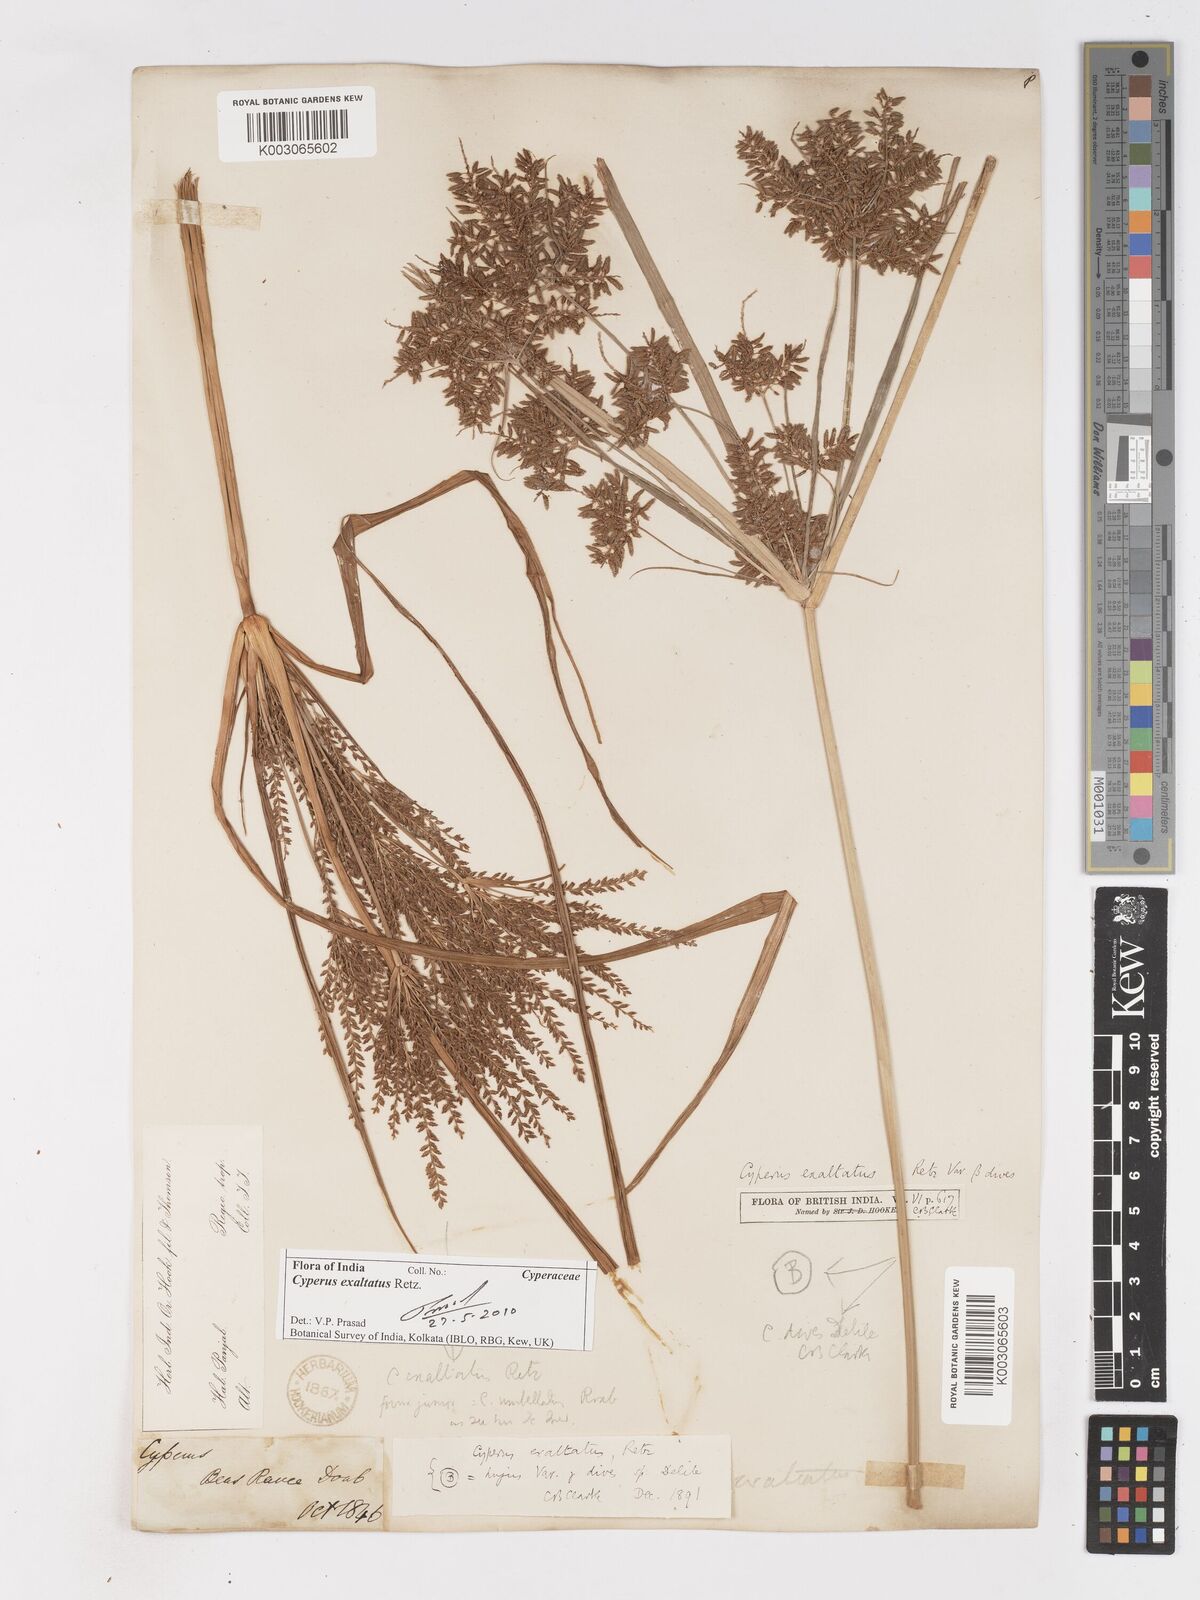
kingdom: Plantae
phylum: Tracheophyta
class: Liliopsida
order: Poales
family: Cyperaceae
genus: Cyperus
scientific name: Cyperus exaltatus
